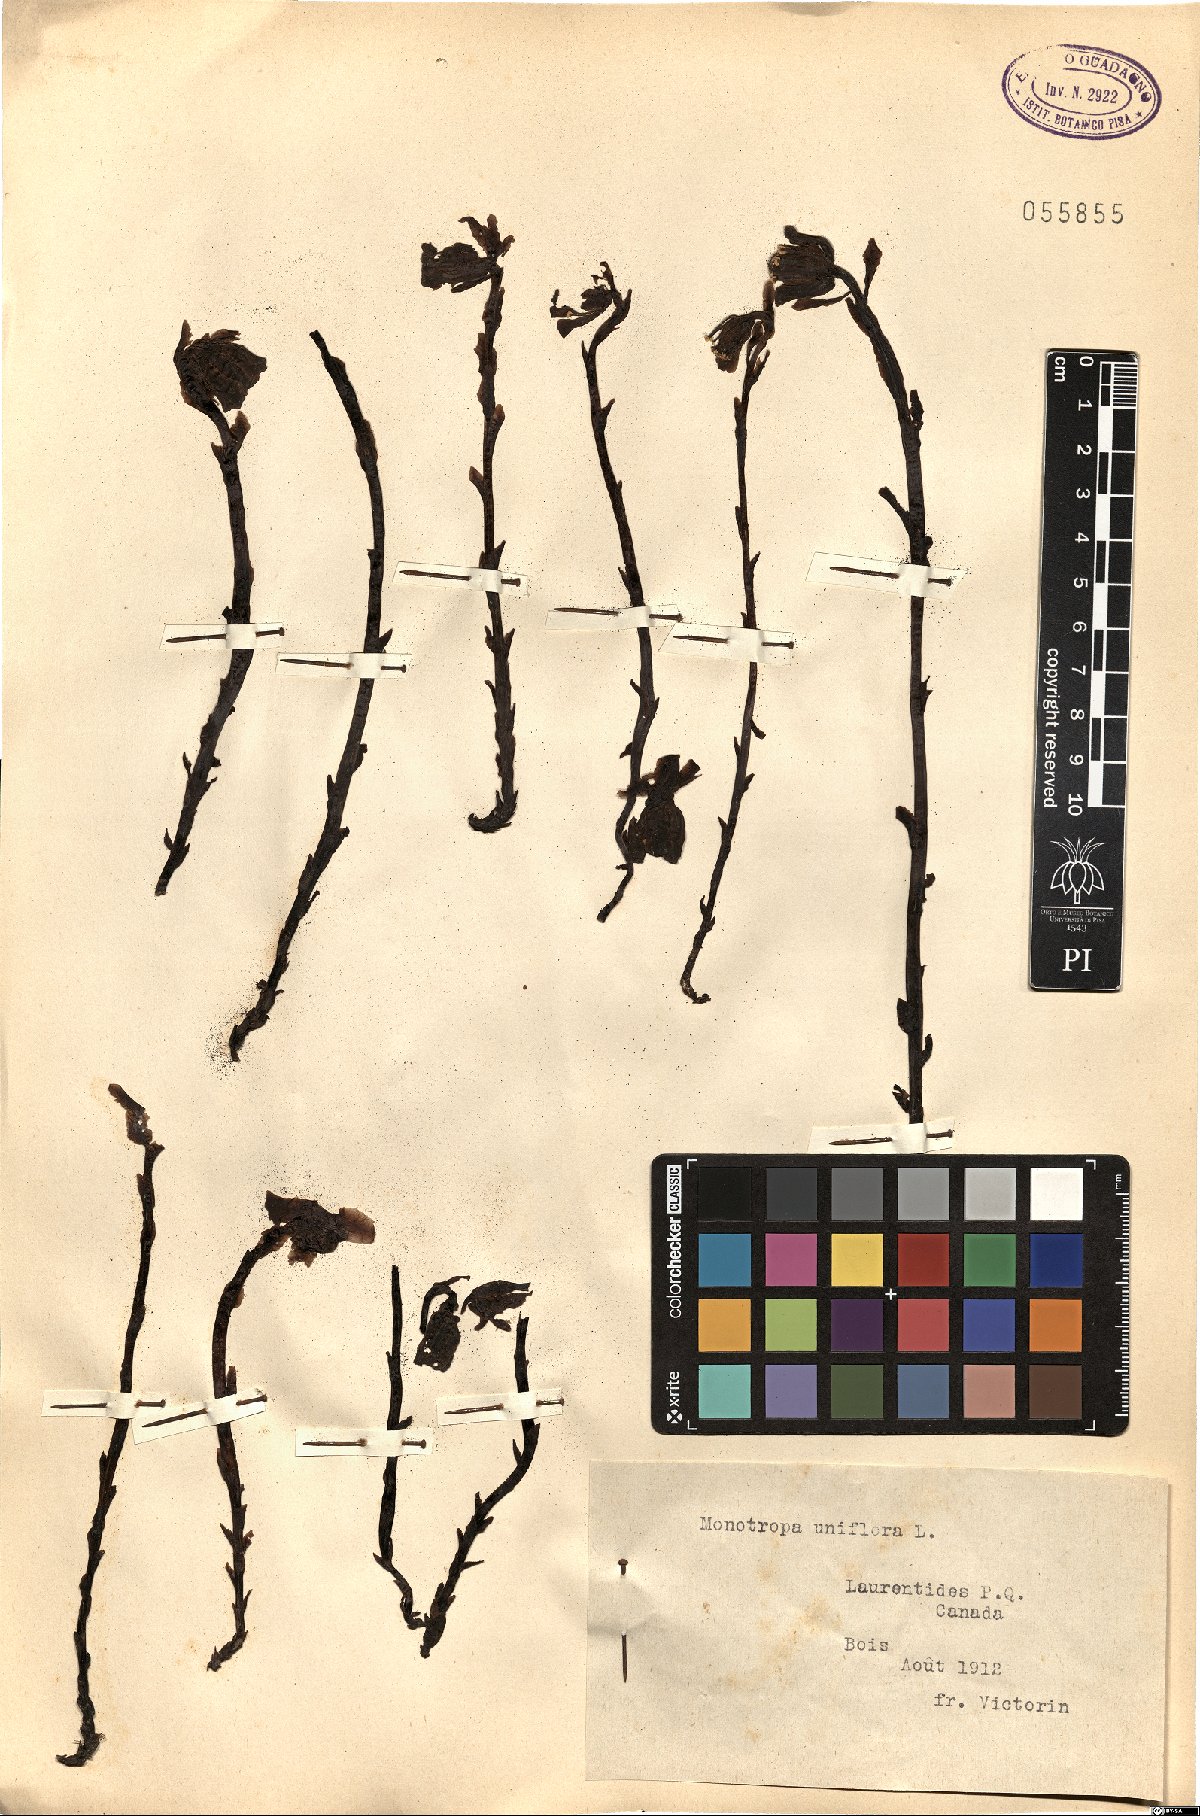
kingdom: Plantae
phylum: Tracheophyta
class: Magnoliopsida
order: Ericales
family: Ericaceae
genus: Monotropa
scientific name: Monotropa uniflora
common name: Convulsion root
